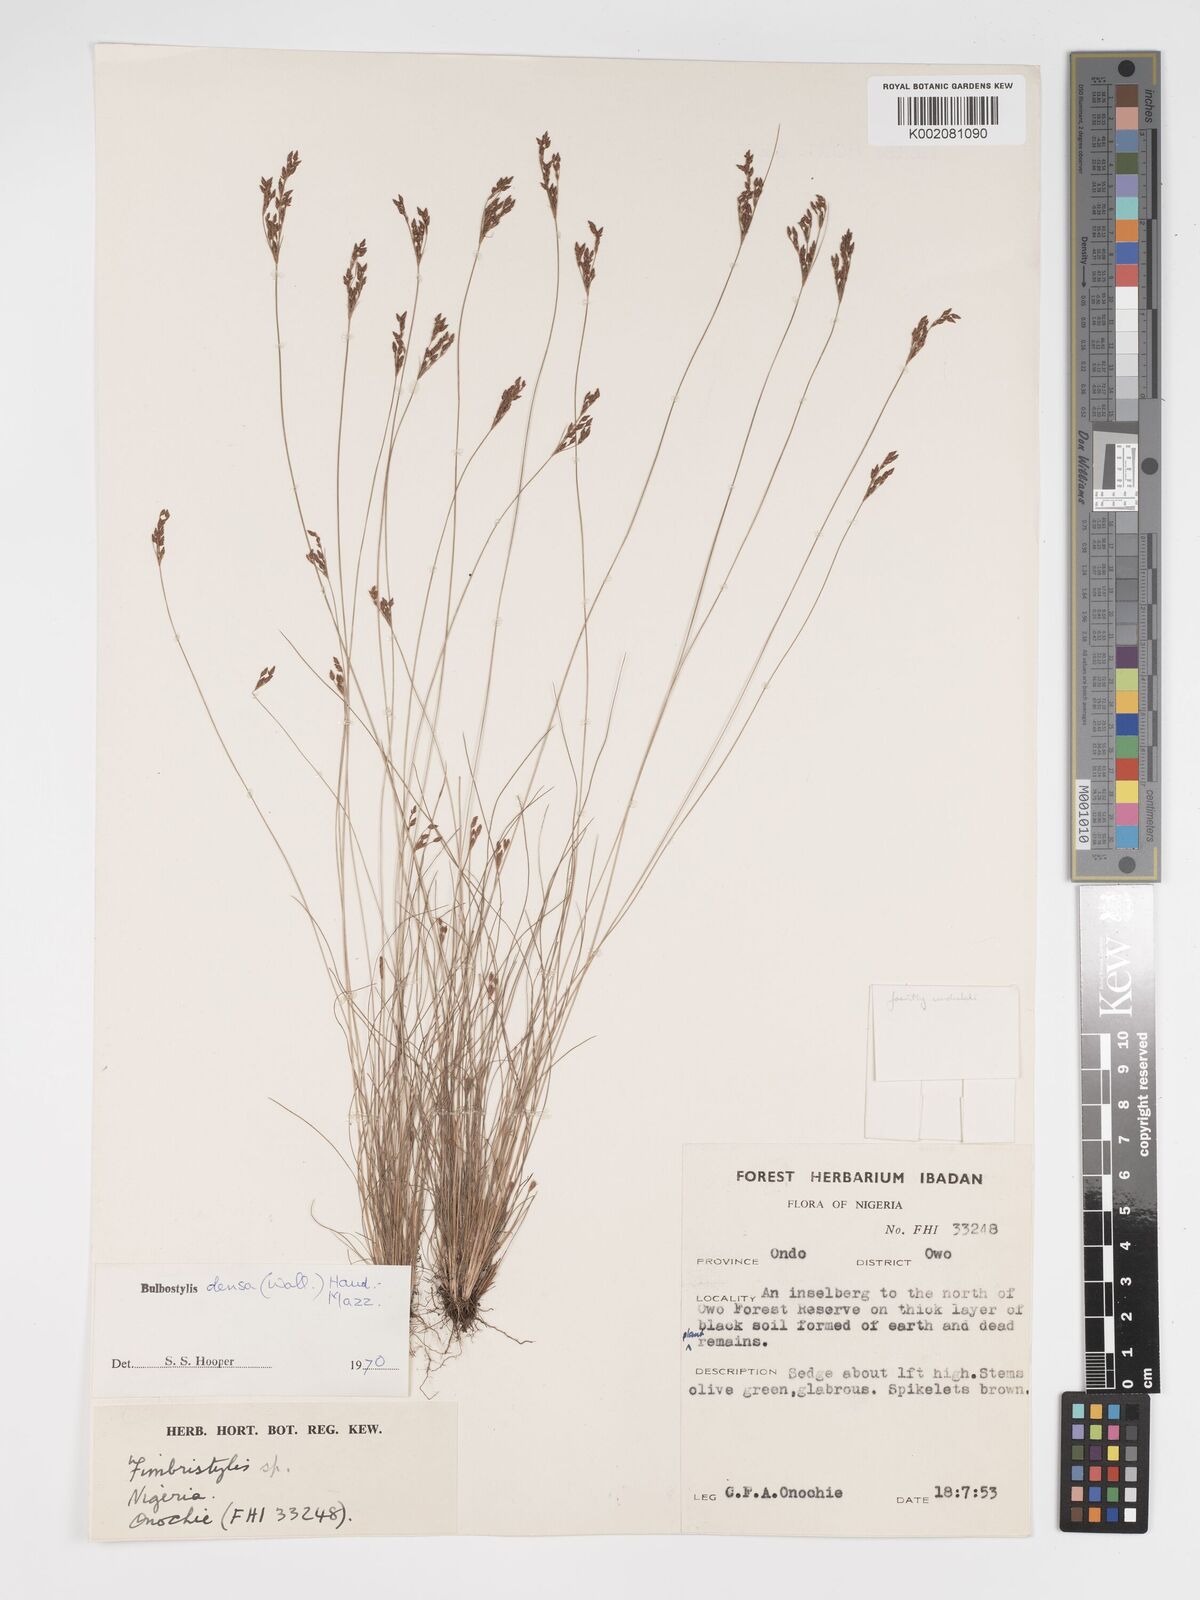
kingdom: Plantae
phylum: Tracheophyta
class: Liliopsida
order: Poales
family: Cyperaceae
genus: Bulbostylis
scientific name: Bulbostylis densa
